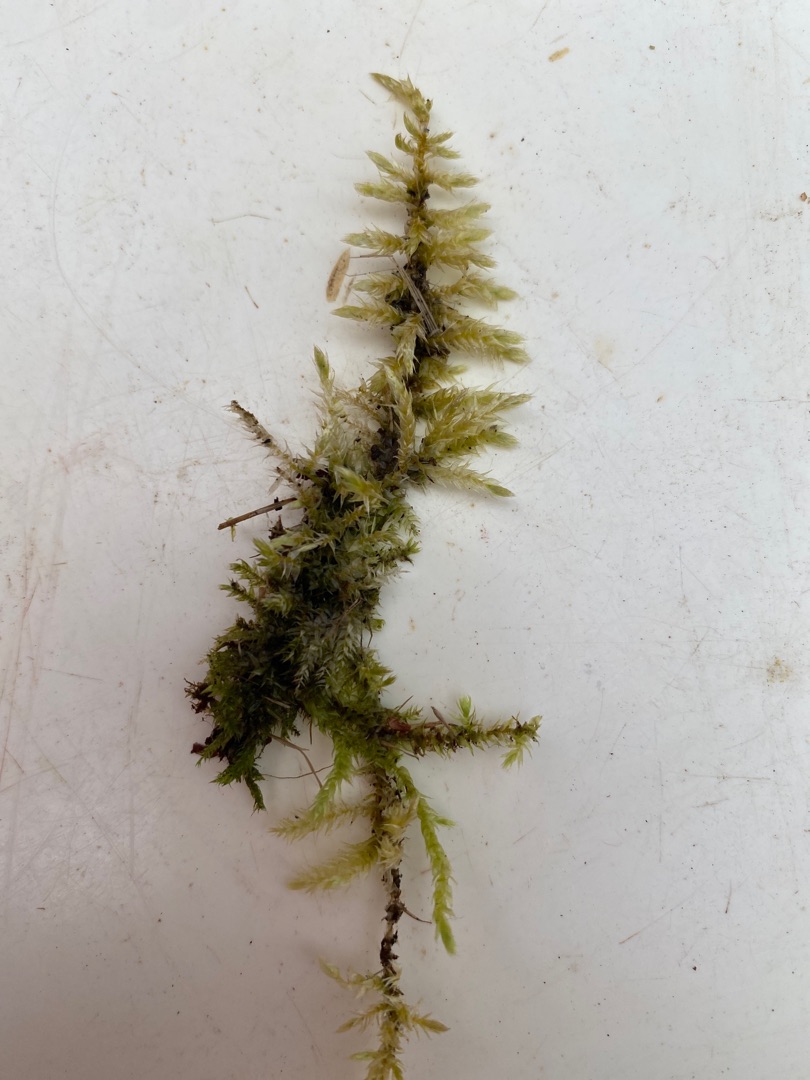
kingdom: Plantae
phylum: Bryophyta
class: Bryopsida
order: Hypnales
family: Brachytheciaceae
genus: Brachythecium
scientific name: Brachythecium rutabulum
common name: Almindelig kortkapsel
